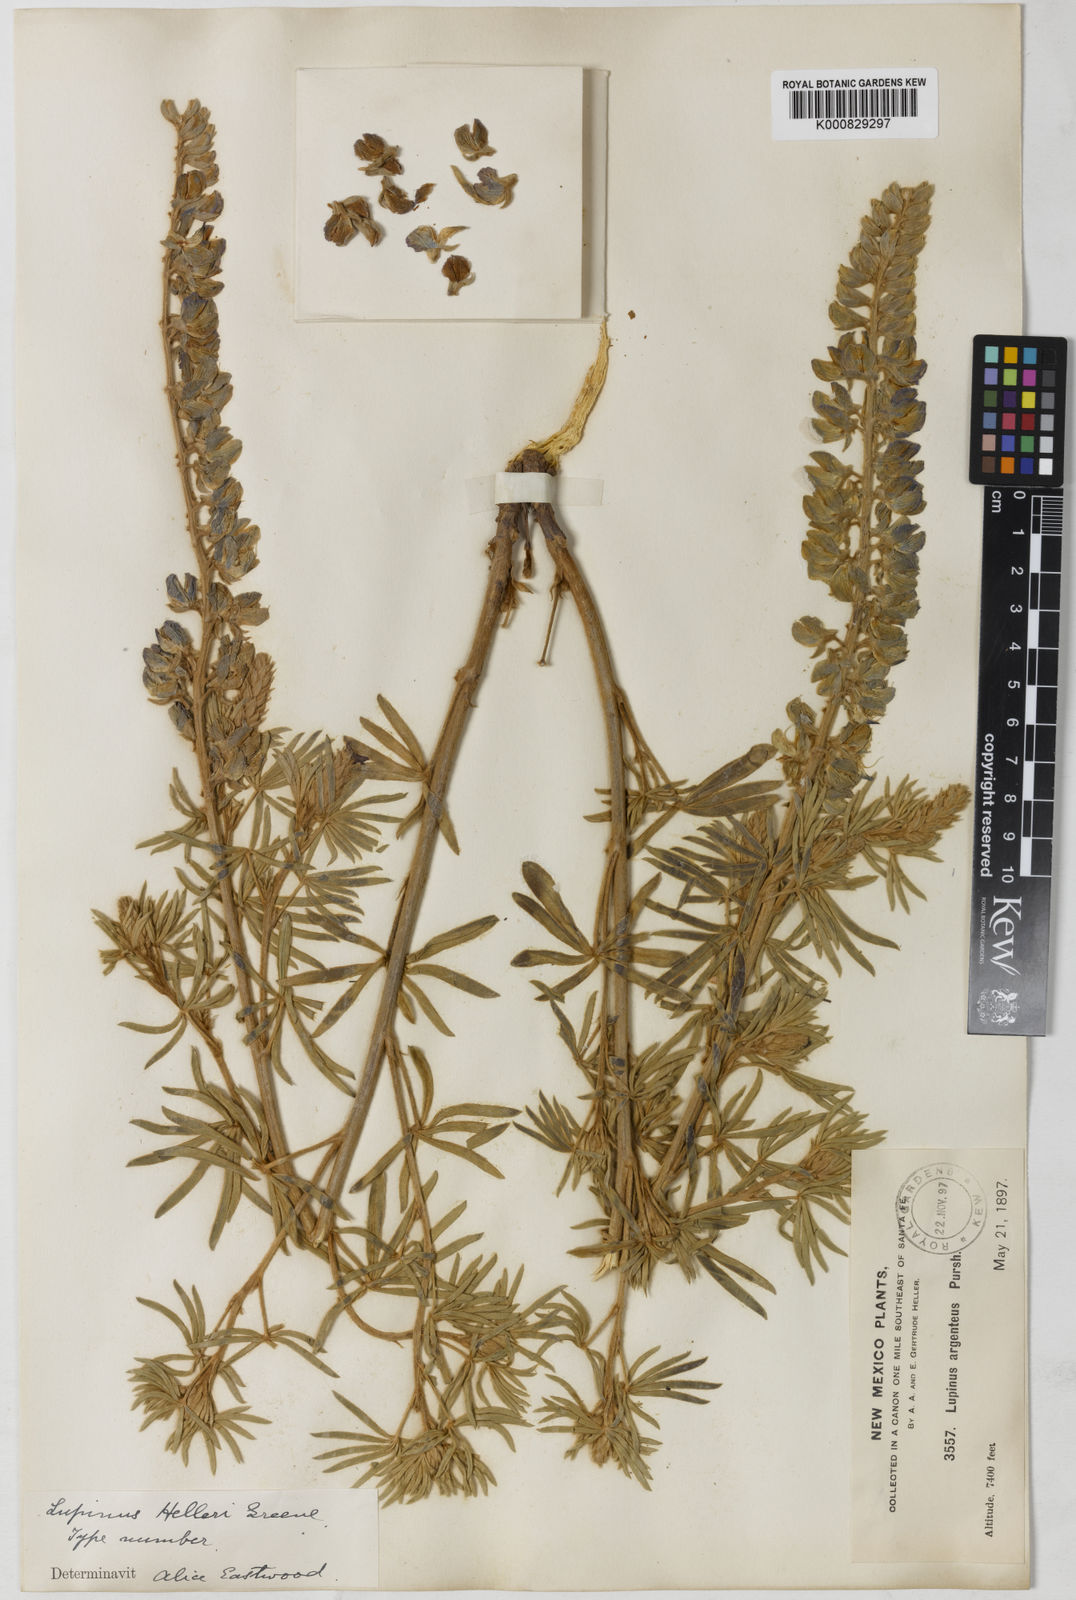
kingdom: Plantae
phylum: Tracheophyta
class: Magnoliopsida
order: Fabales
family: Fabaceae
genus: Lupinus
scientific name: Lupinus caudatus
